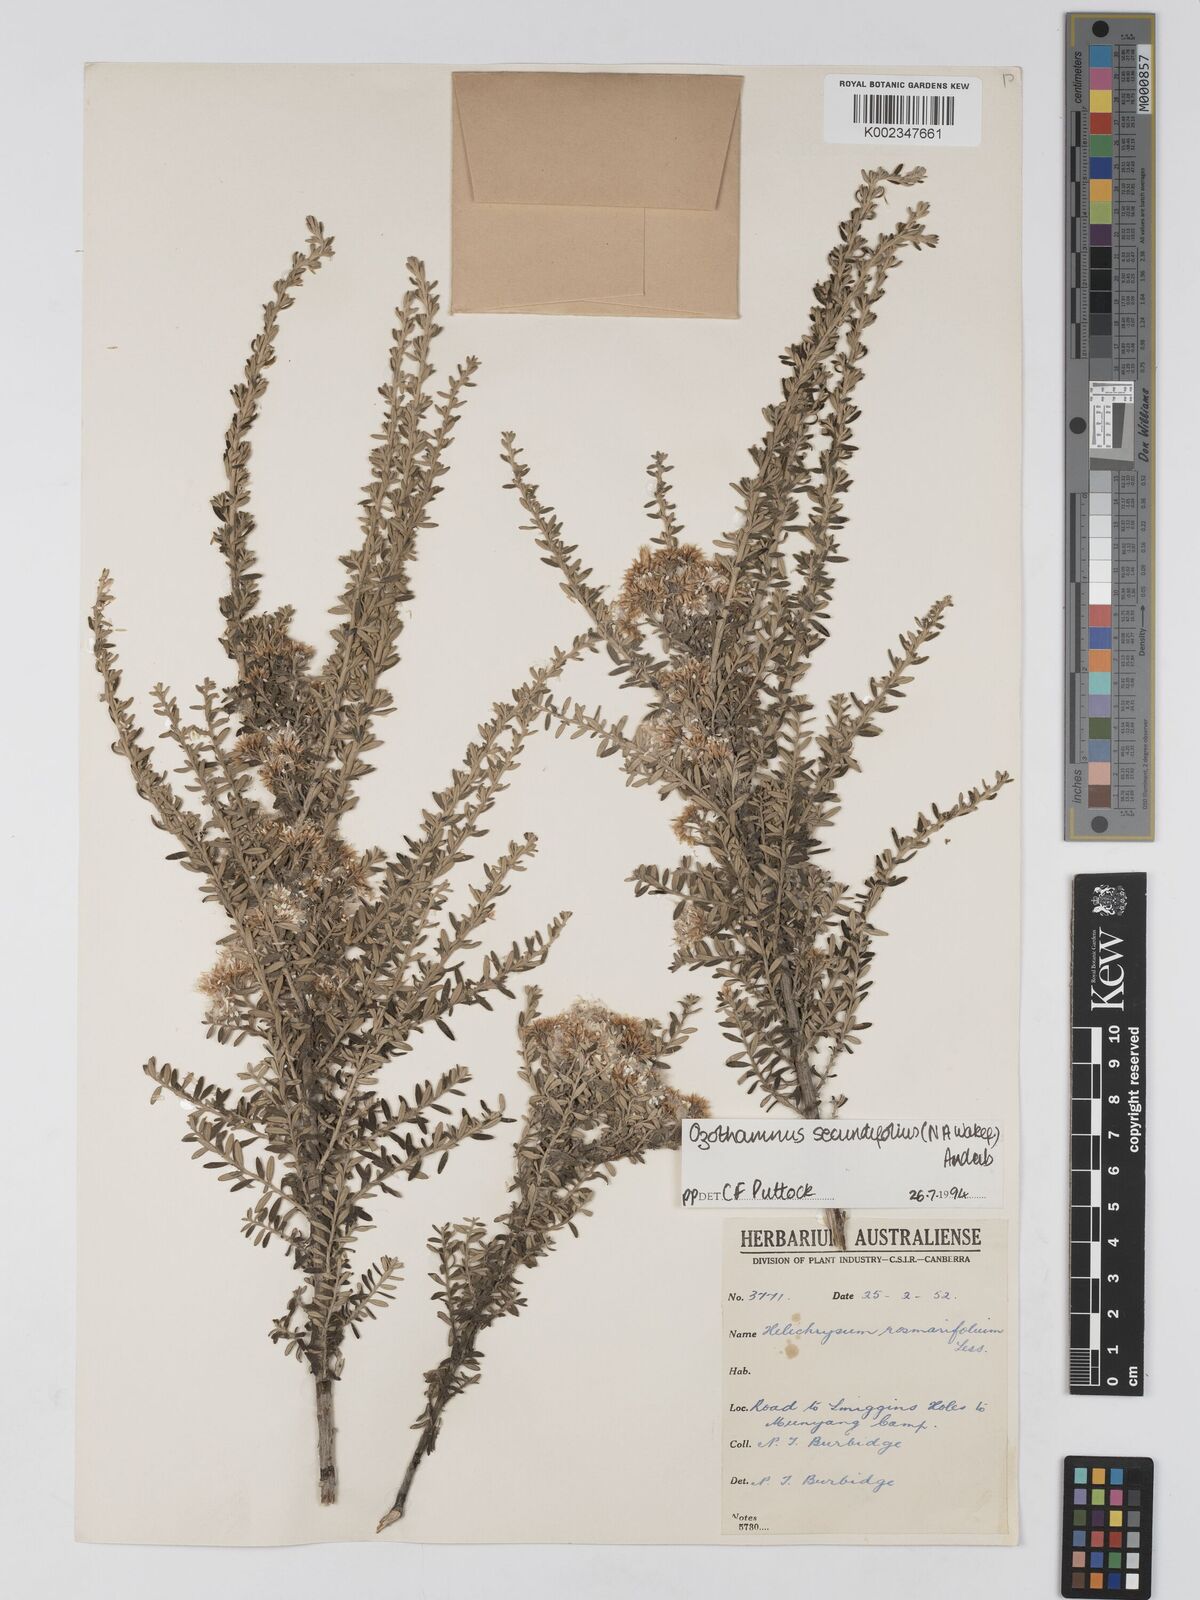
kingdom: Plantae
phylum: Tracheophyta
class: Magnoliopsida
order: Asterales
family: Asteraceae
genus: Ozothamnus
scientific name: Ozothamnus secundiflorus
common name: Cascade everlasting
